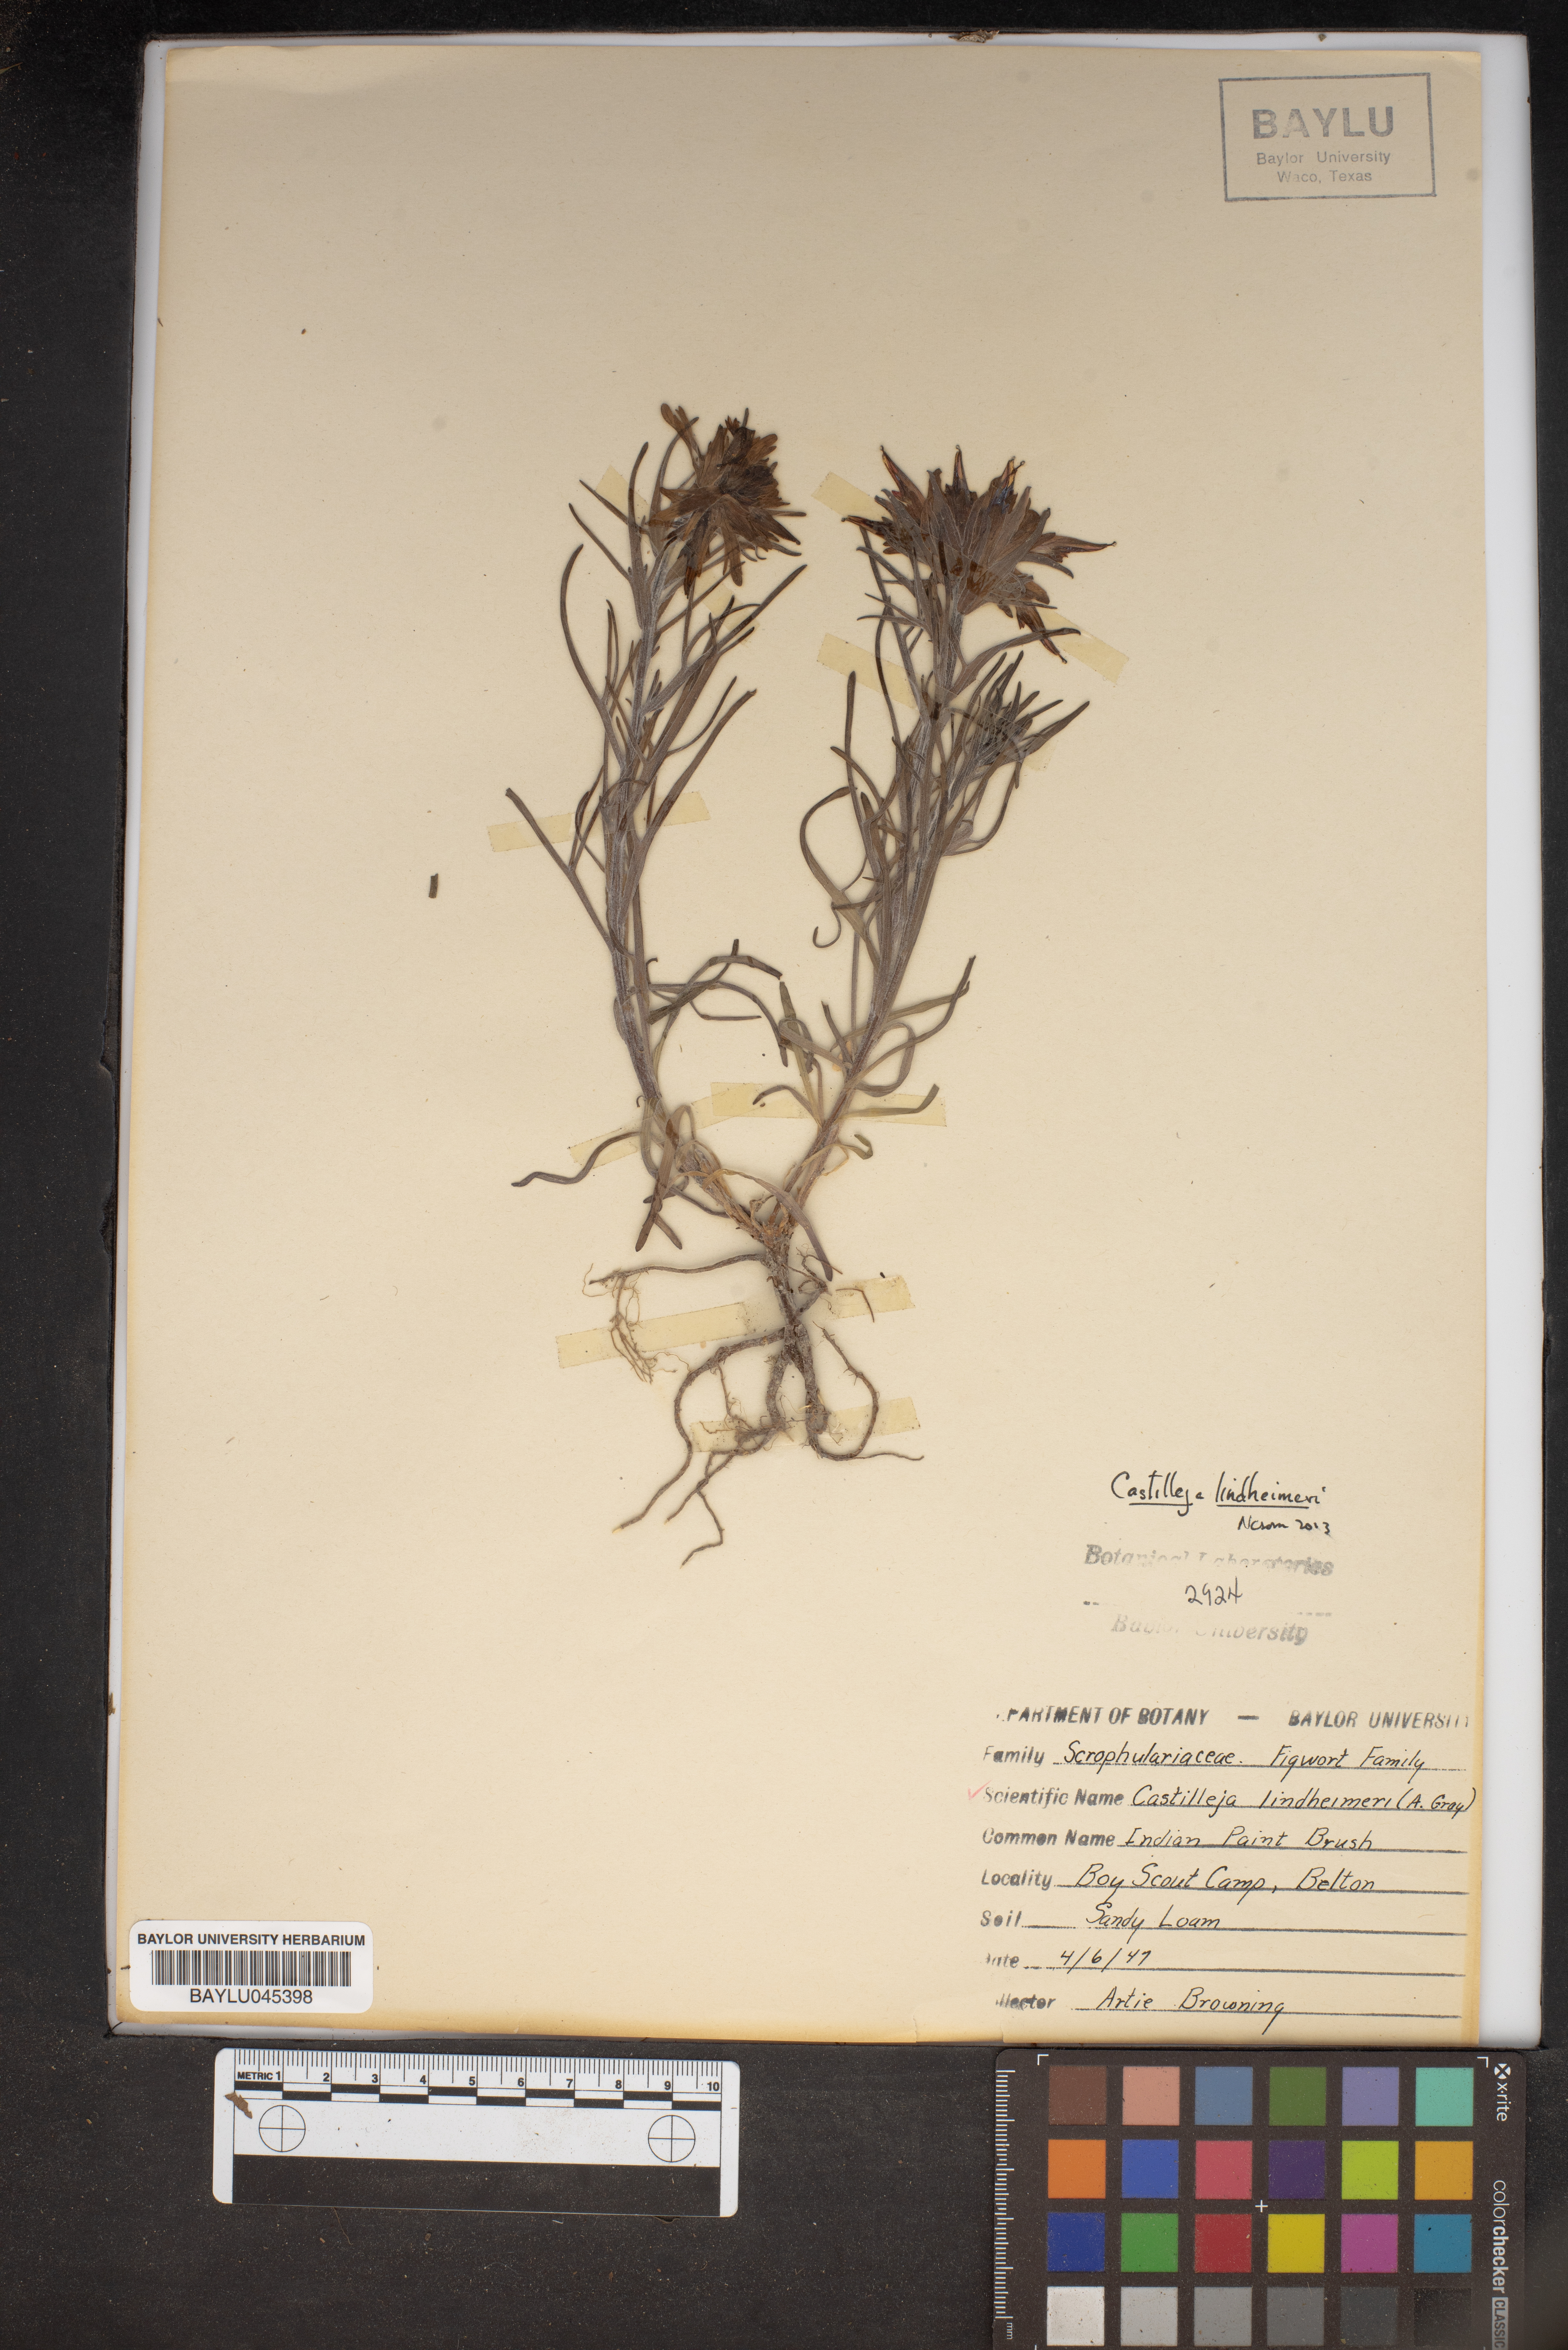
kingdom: Plantae
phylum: Tracheophyta
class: Magnoliopsida
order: Lamiales
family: Orobanchaceae
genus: Castilleja
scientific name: Castilleja lindheimeri
